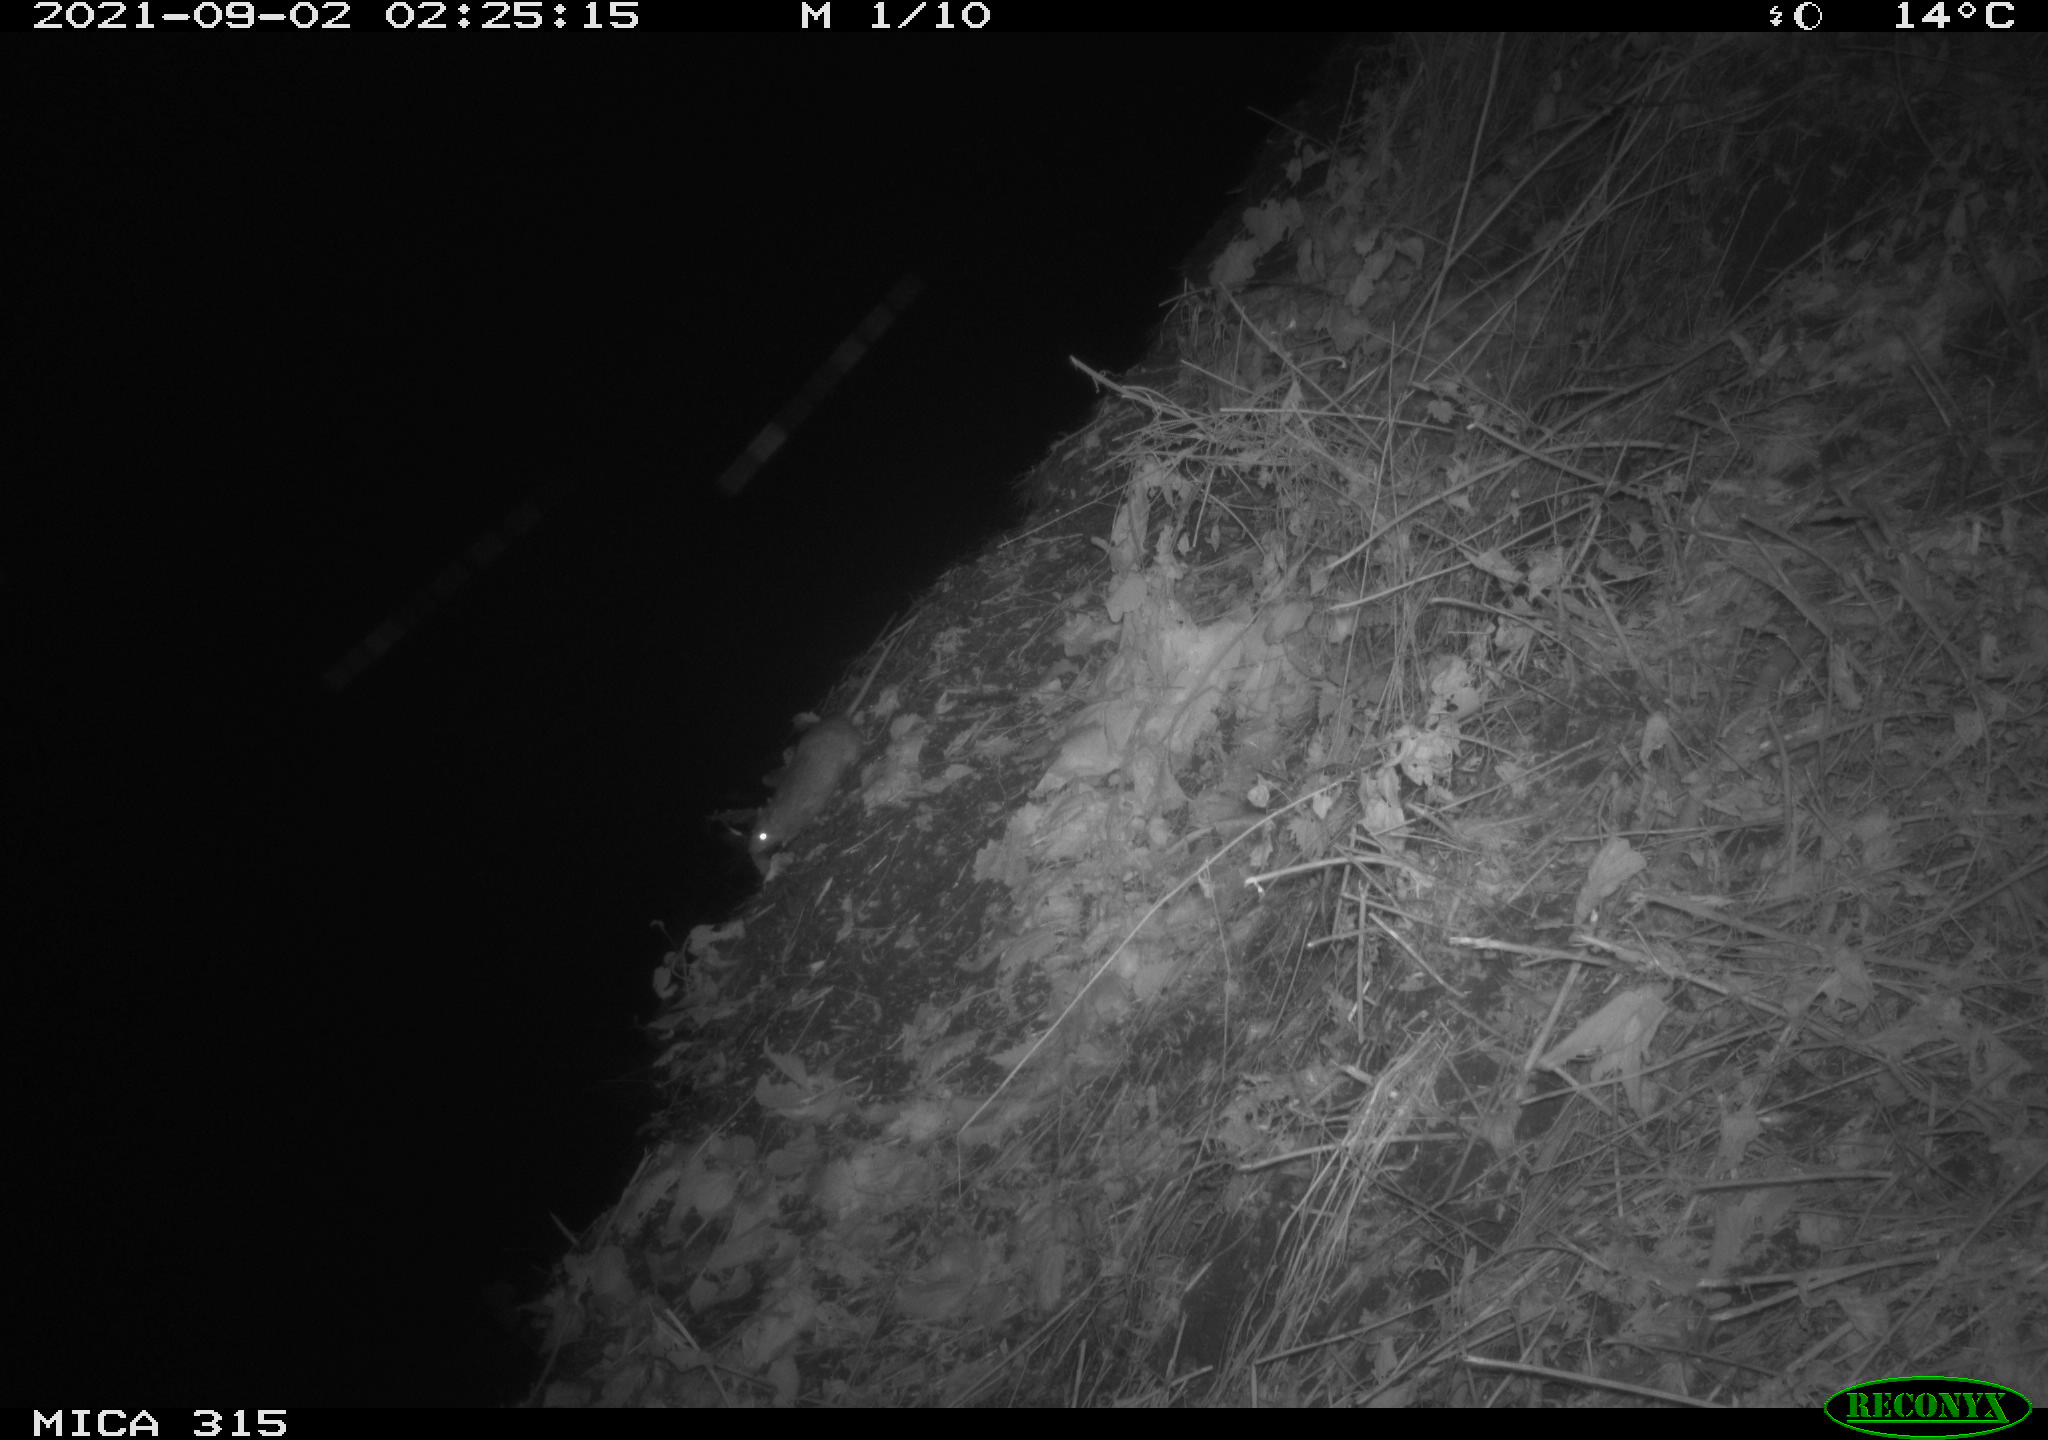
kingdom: Animalia
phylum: Chordata
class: Mammalia
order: Rodentia
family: Muridae
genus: Rattus
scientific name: Rattus norvegicus
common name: Brown rat
